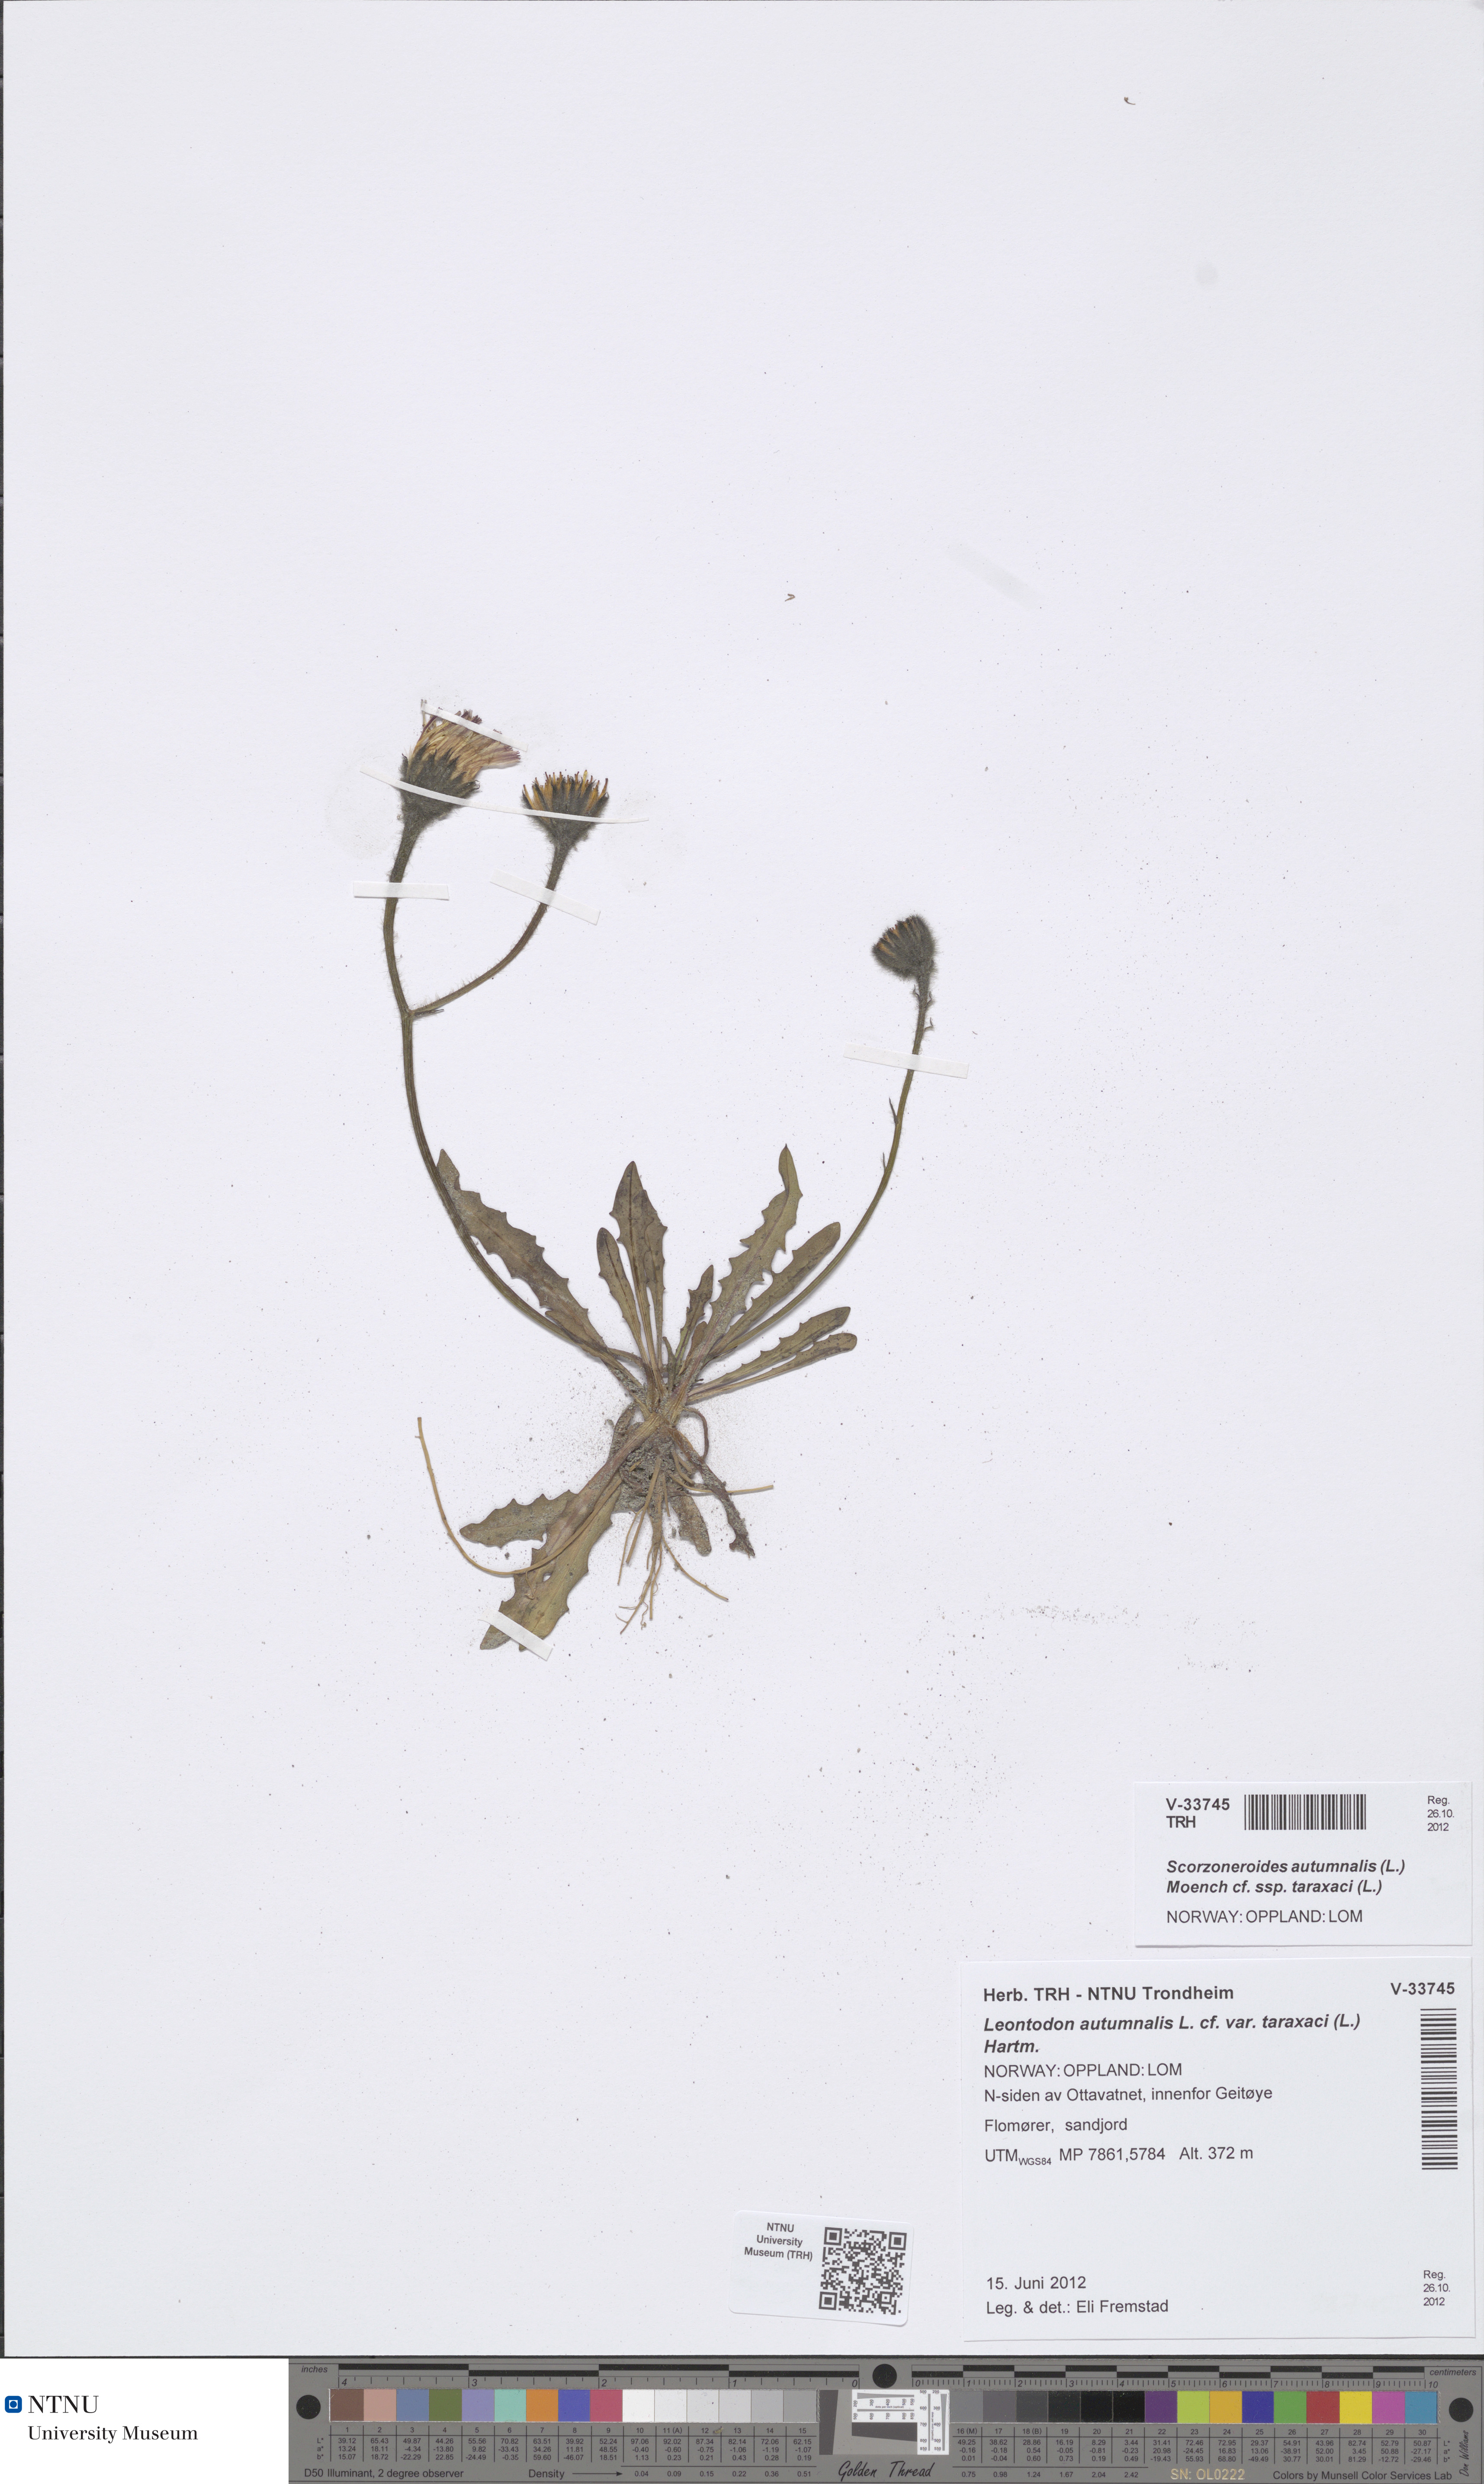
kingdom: Plantae
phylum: Tracheophyta
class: Magnoliopsida
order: Asterales
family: Asteraceae
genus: Scorzoneroides
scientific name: Scorzoneroides autumnalis
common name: Autumn hawkbit
